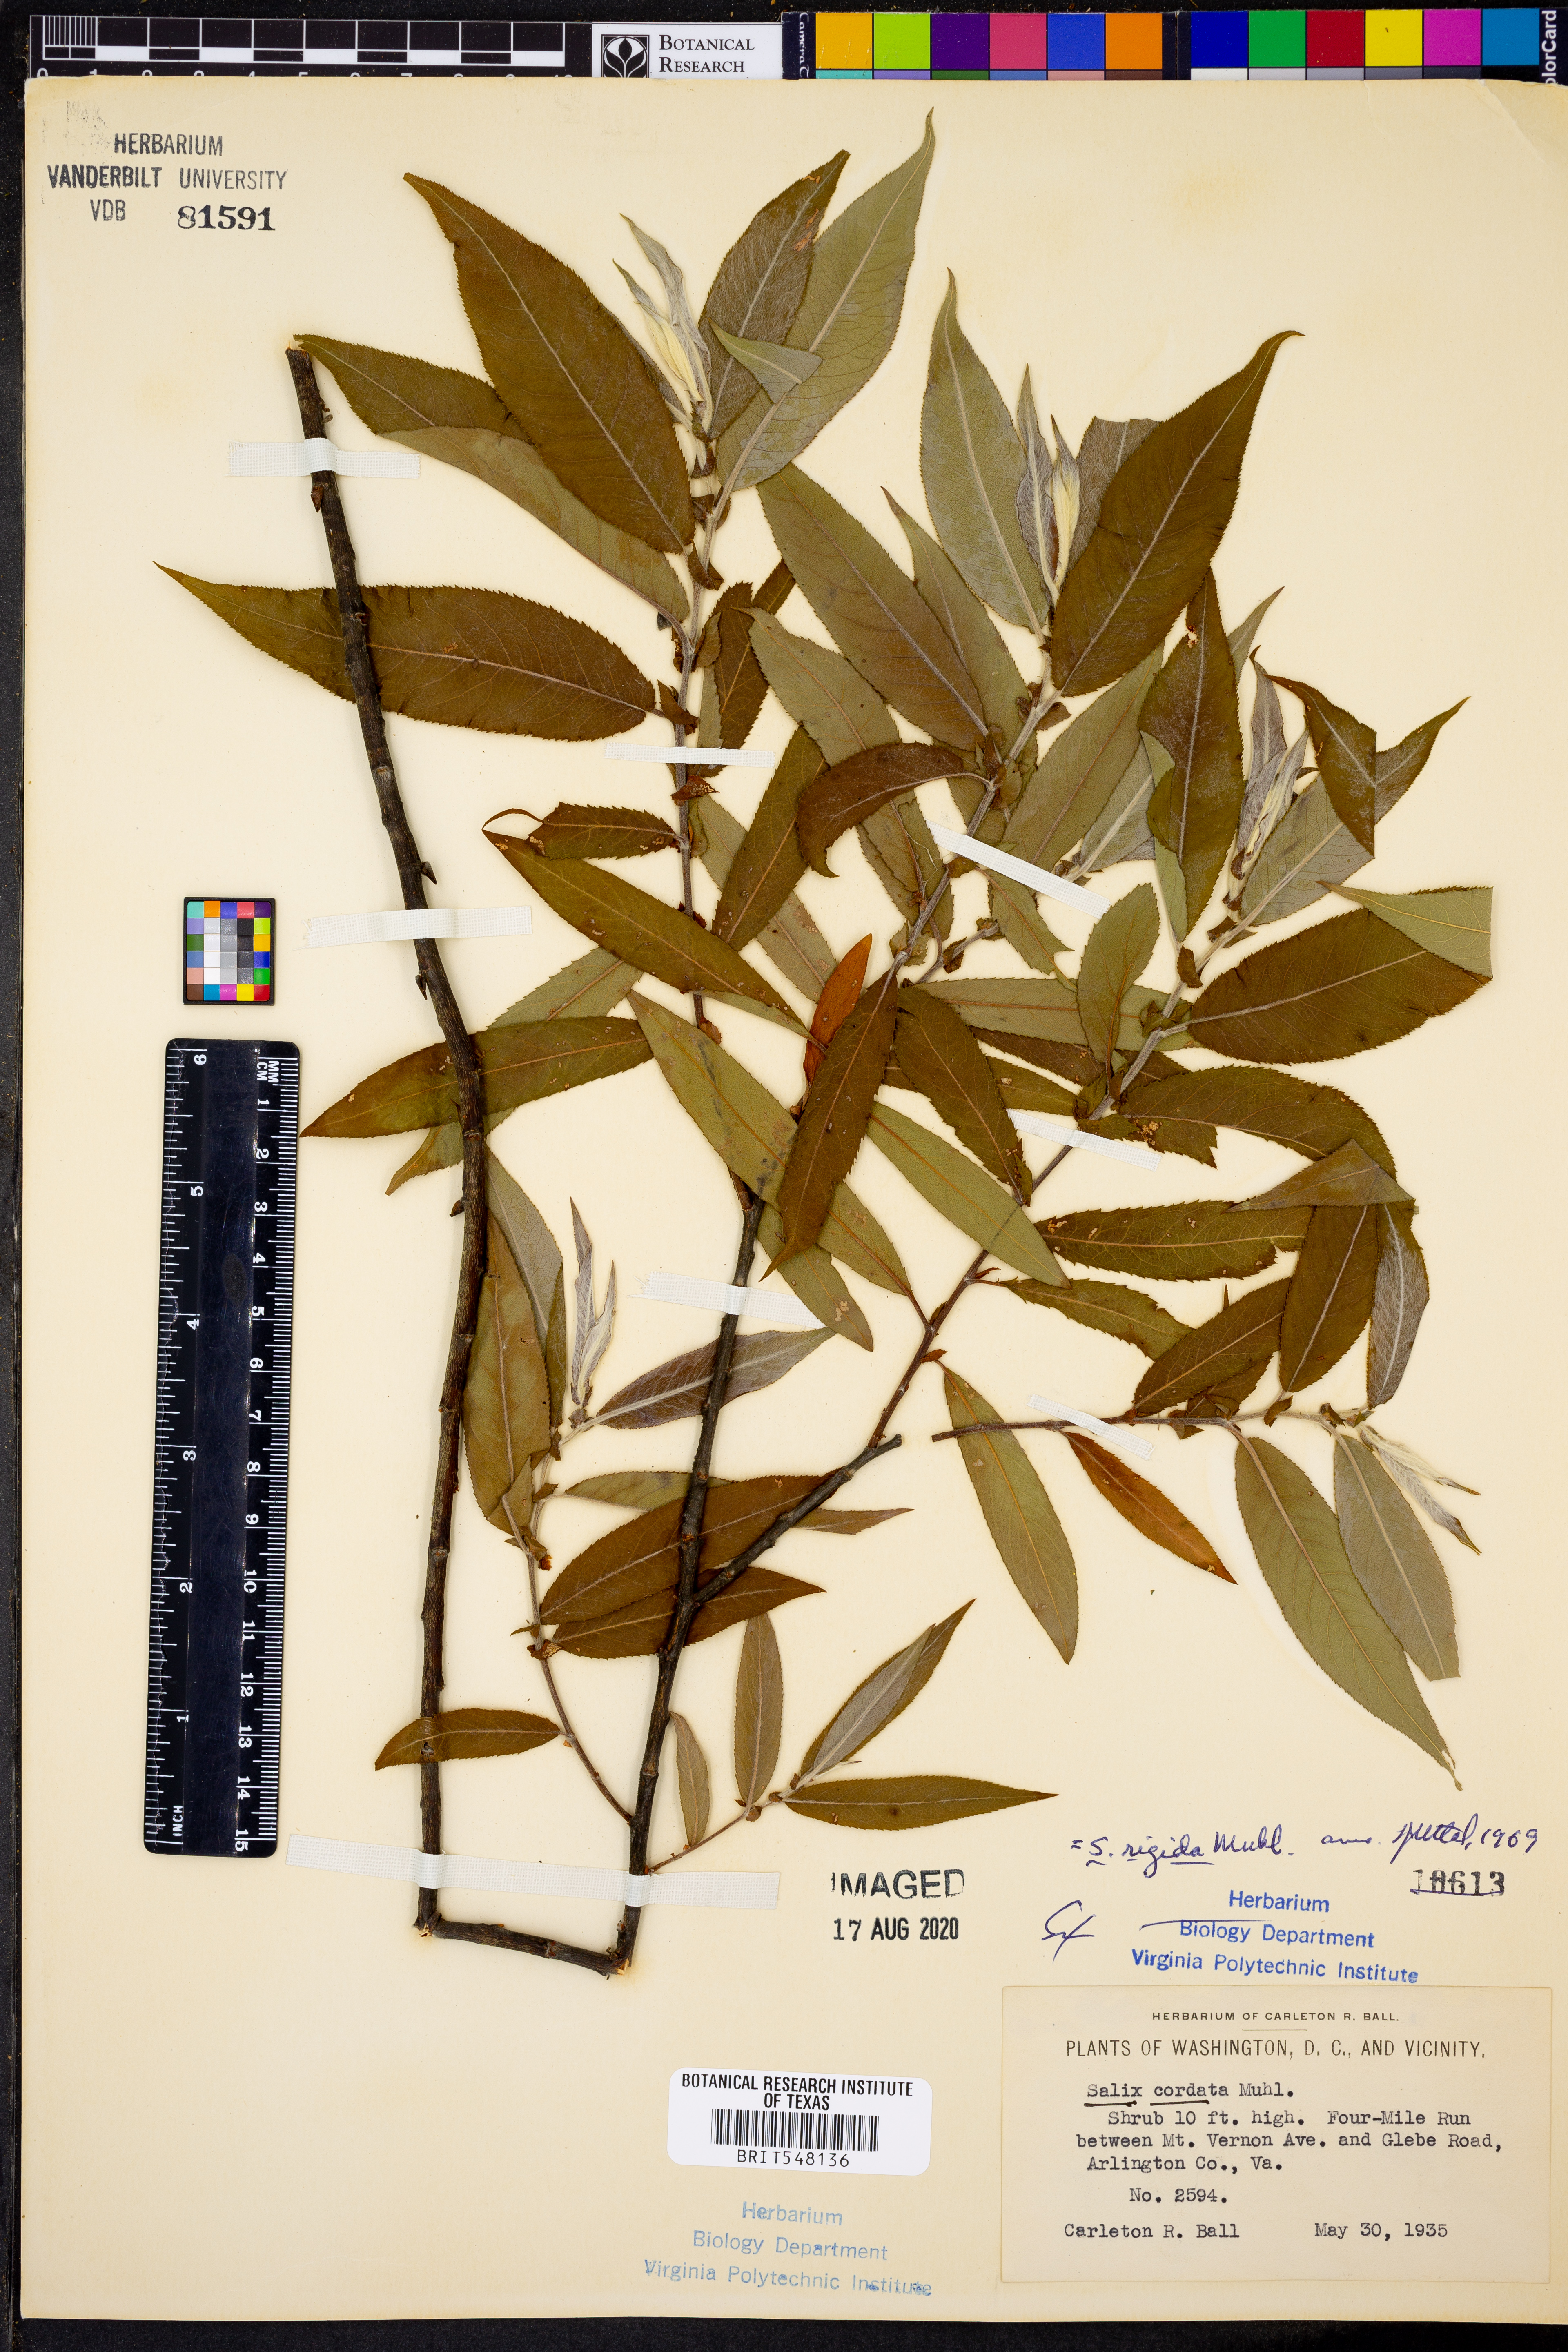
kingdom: Plantae
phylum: Tracheophyta
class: Magnoliopsida
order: Malpighiales
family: Salicaceae
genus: Salix
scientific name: Salix eriocephala
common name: Heart-leaved willow
